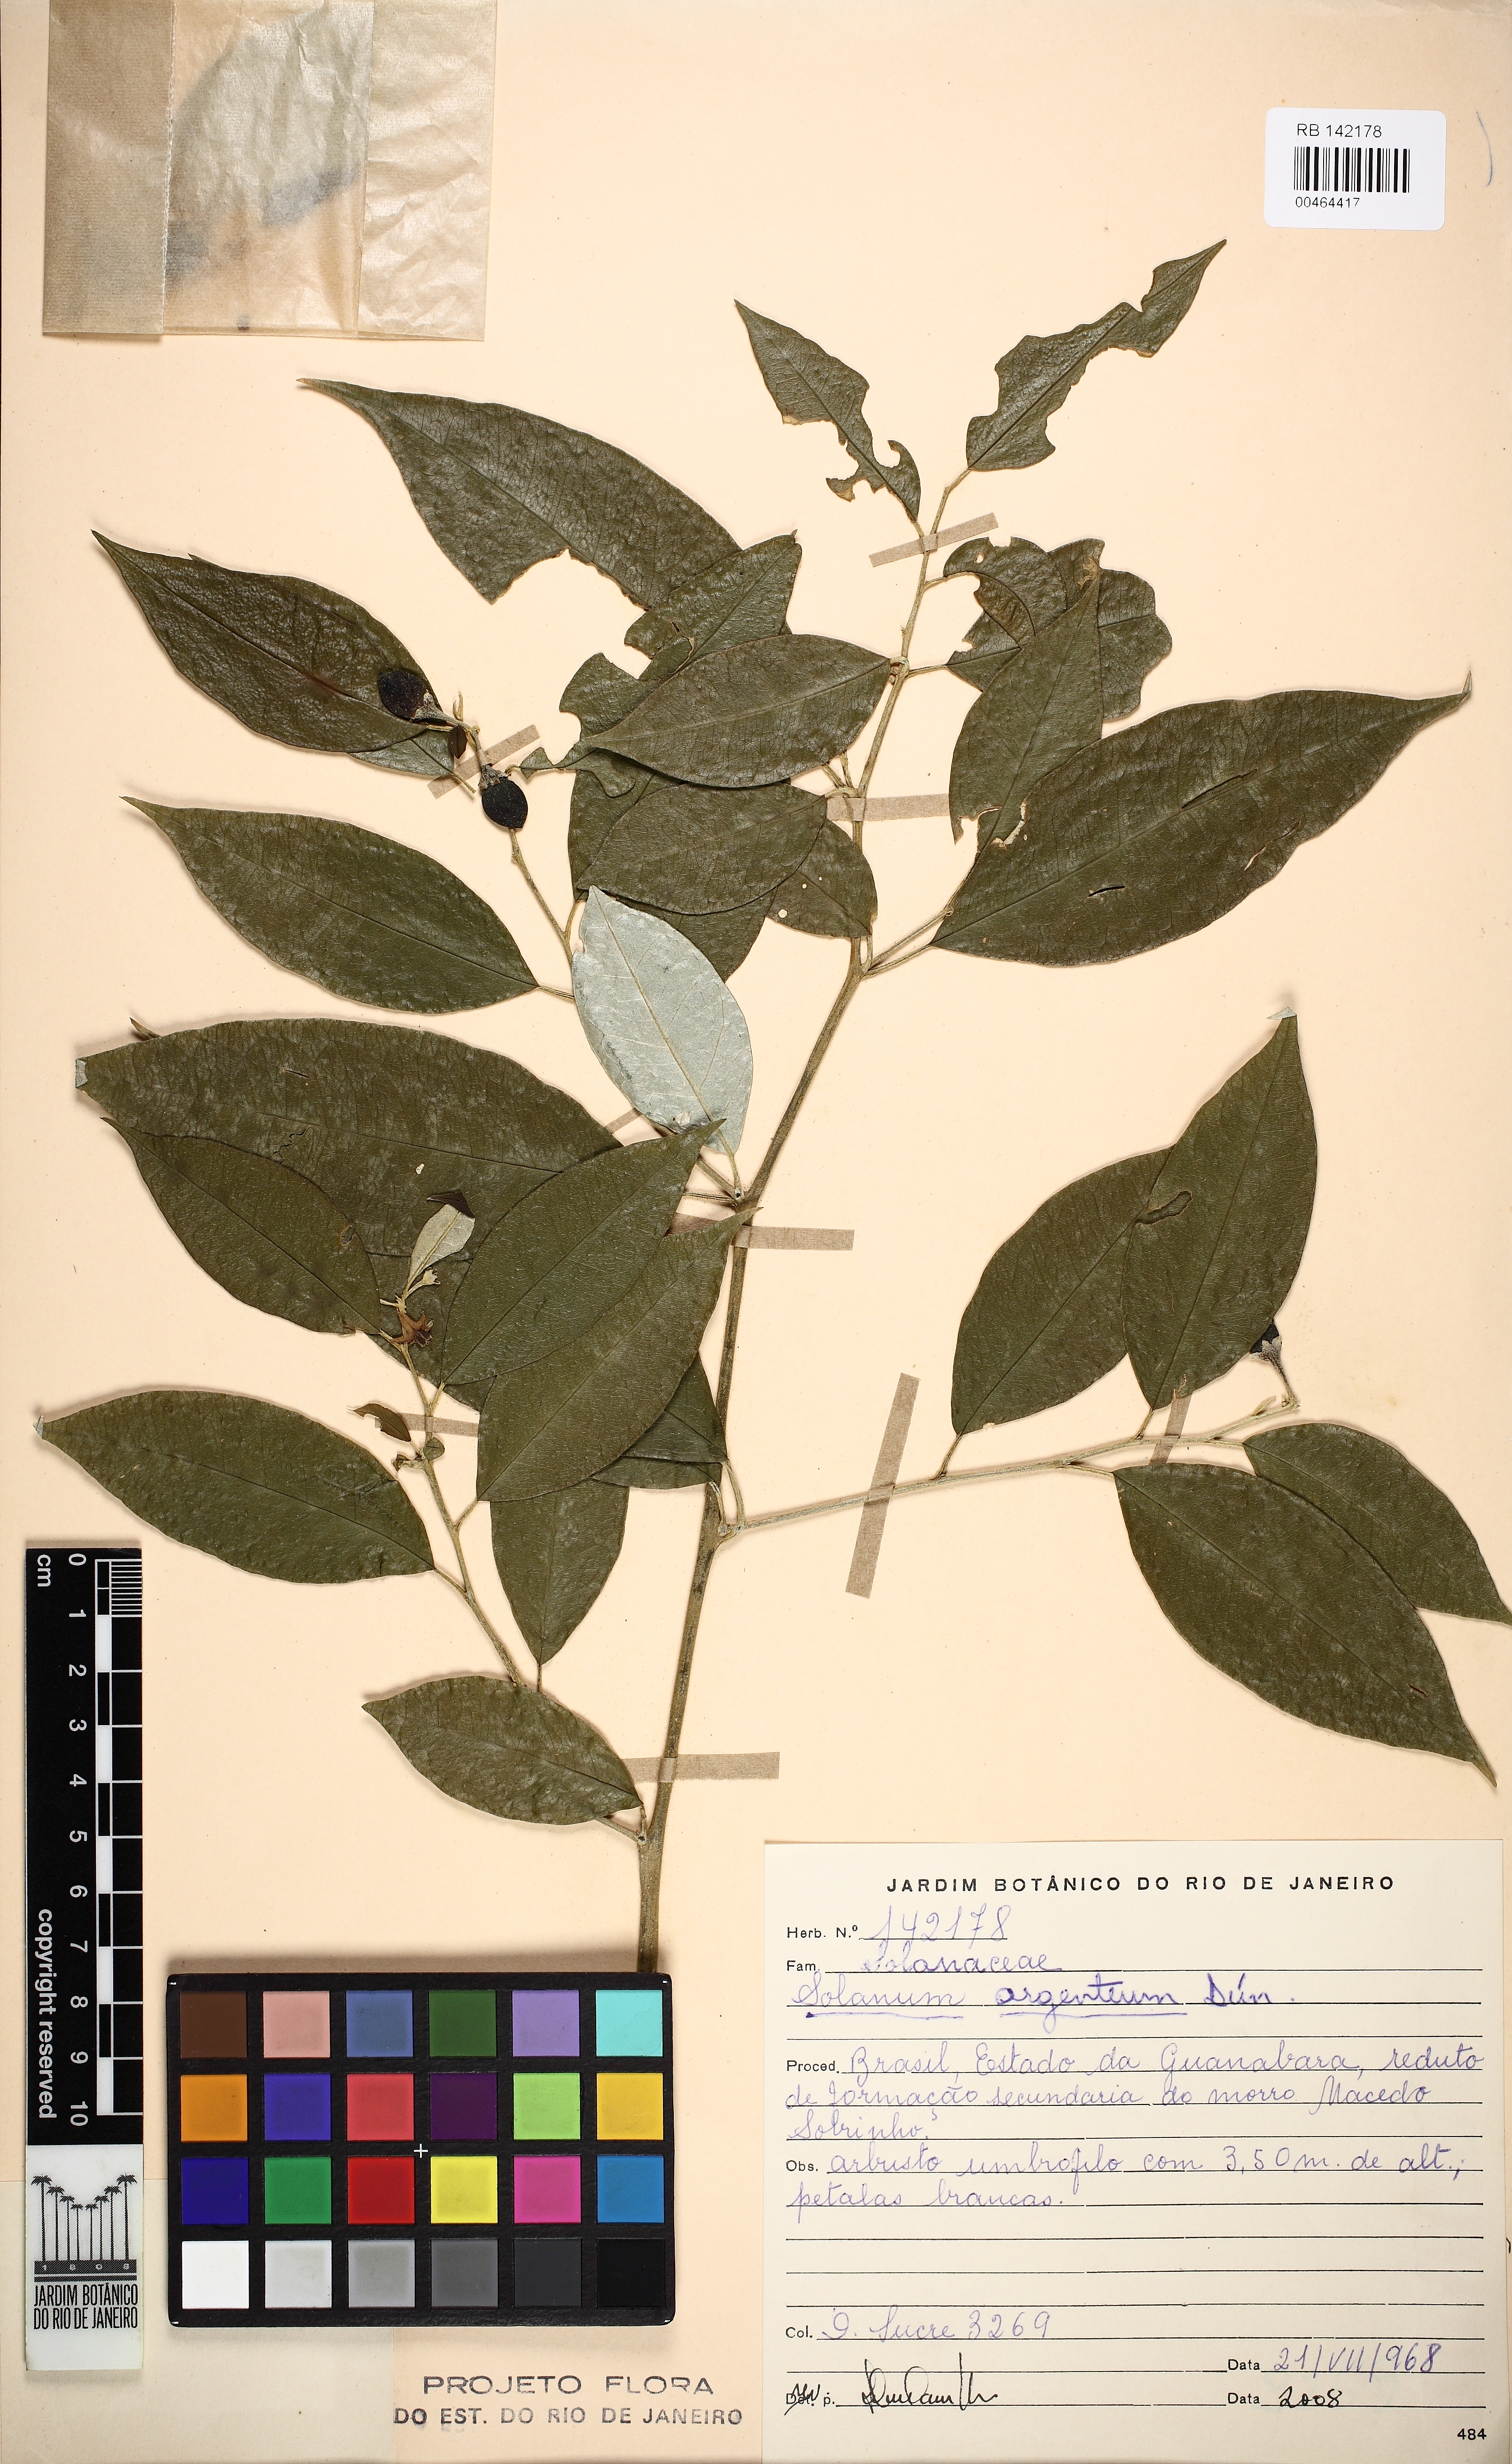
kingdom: Plantae
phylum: Tracheophyta
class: Magnoliopsida
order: Solanales
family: Solanaceae
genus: Solanum
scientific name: Solanum swartzianum
